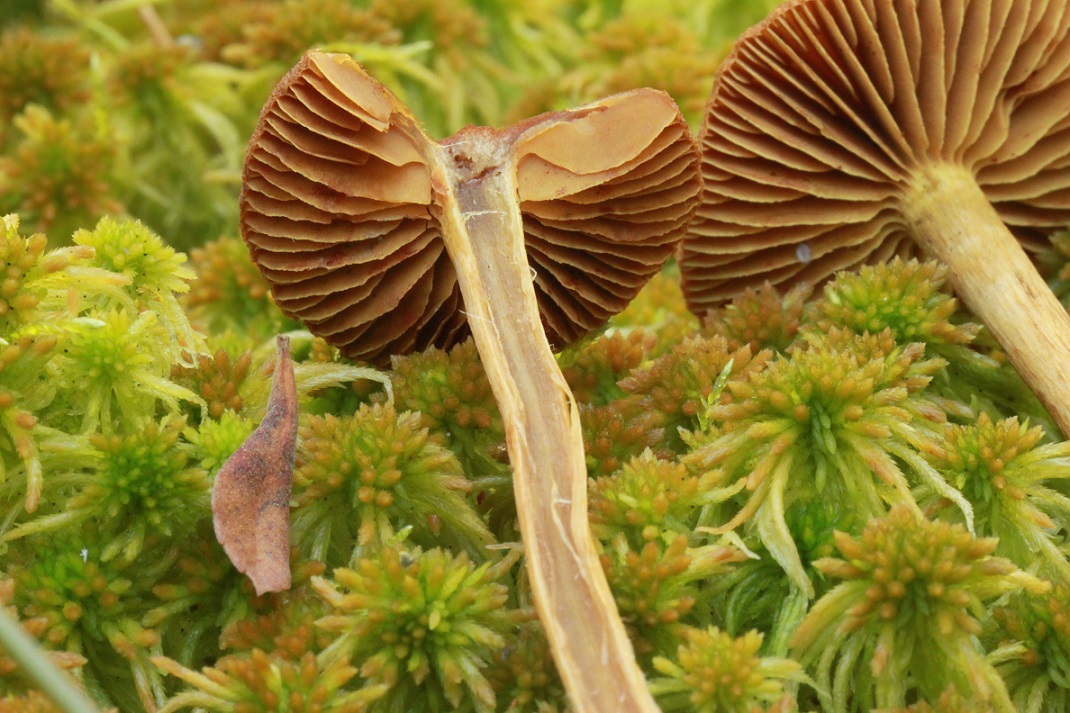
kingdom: Fungi
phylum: Basidiomycota
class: Agaricomycetes
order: Agaricales
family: Cortinariaceae
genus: Cortinarius
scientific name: Cortinarius subfusipes
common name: højmose-slørhat
